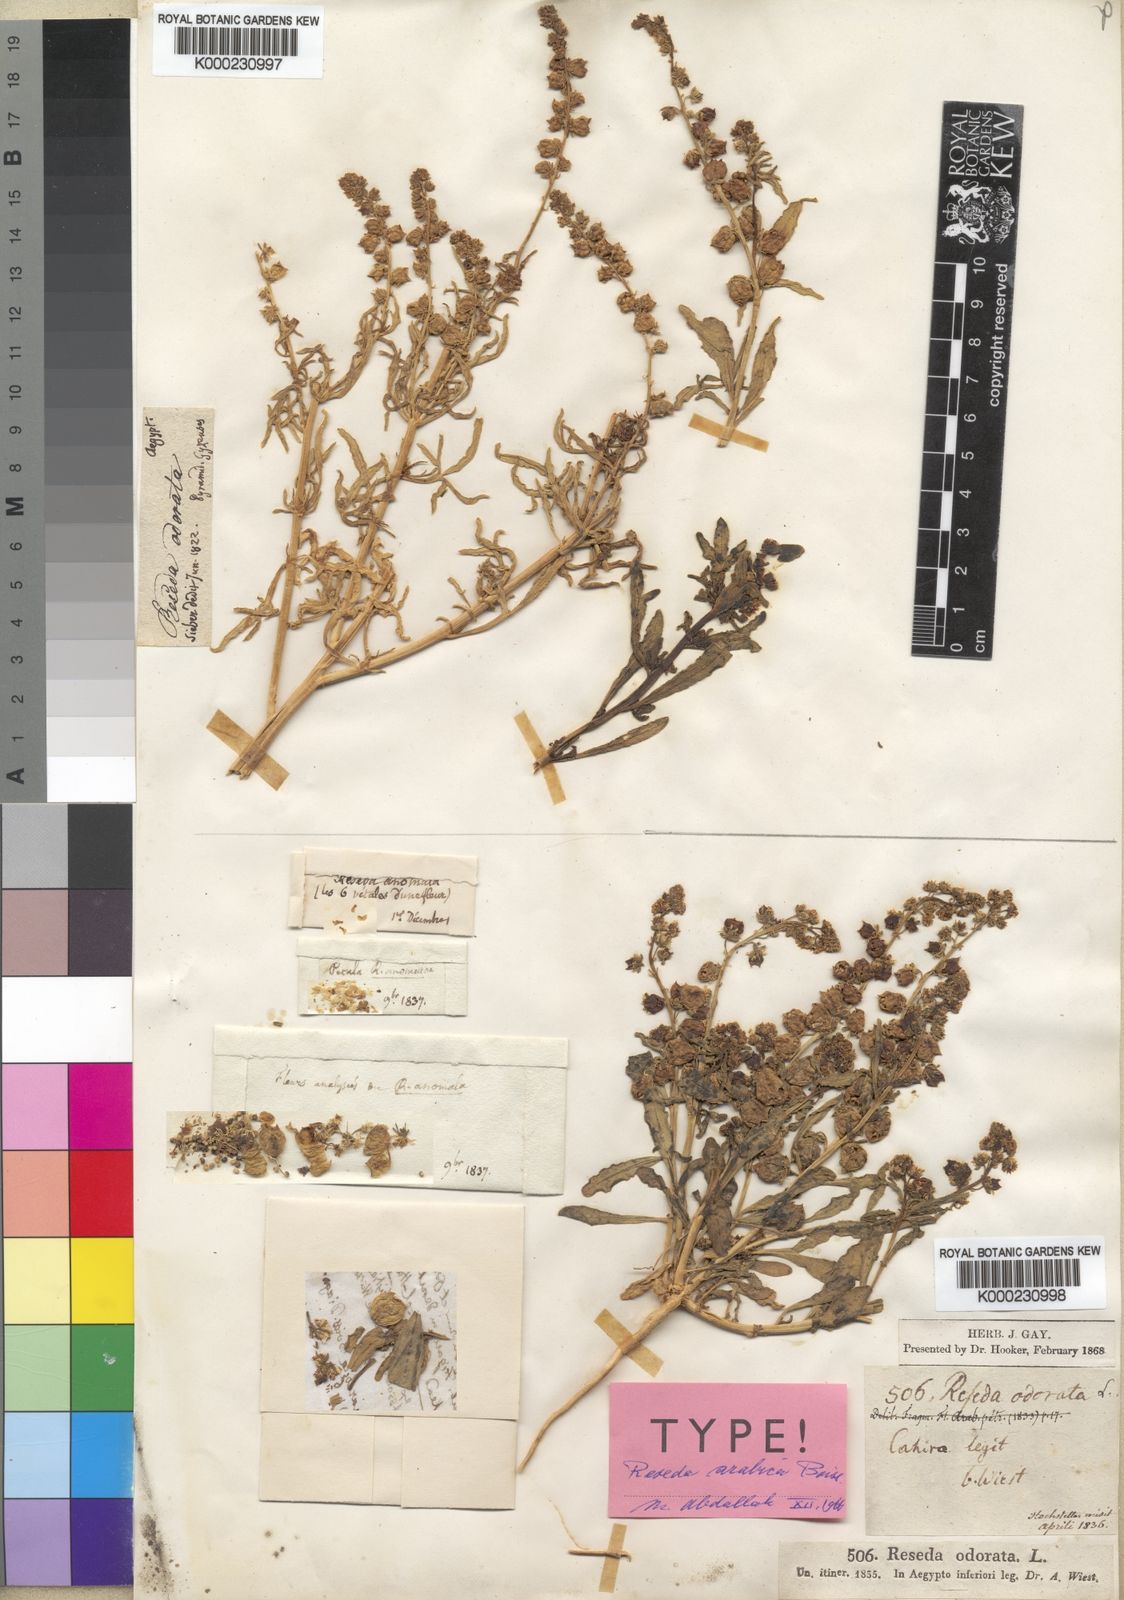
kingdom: Plantae
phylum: Tracheophyta
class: Magnoliopsida
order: Brassicales
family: Resedaceae
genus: Reseda
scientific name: Reseda arabica
